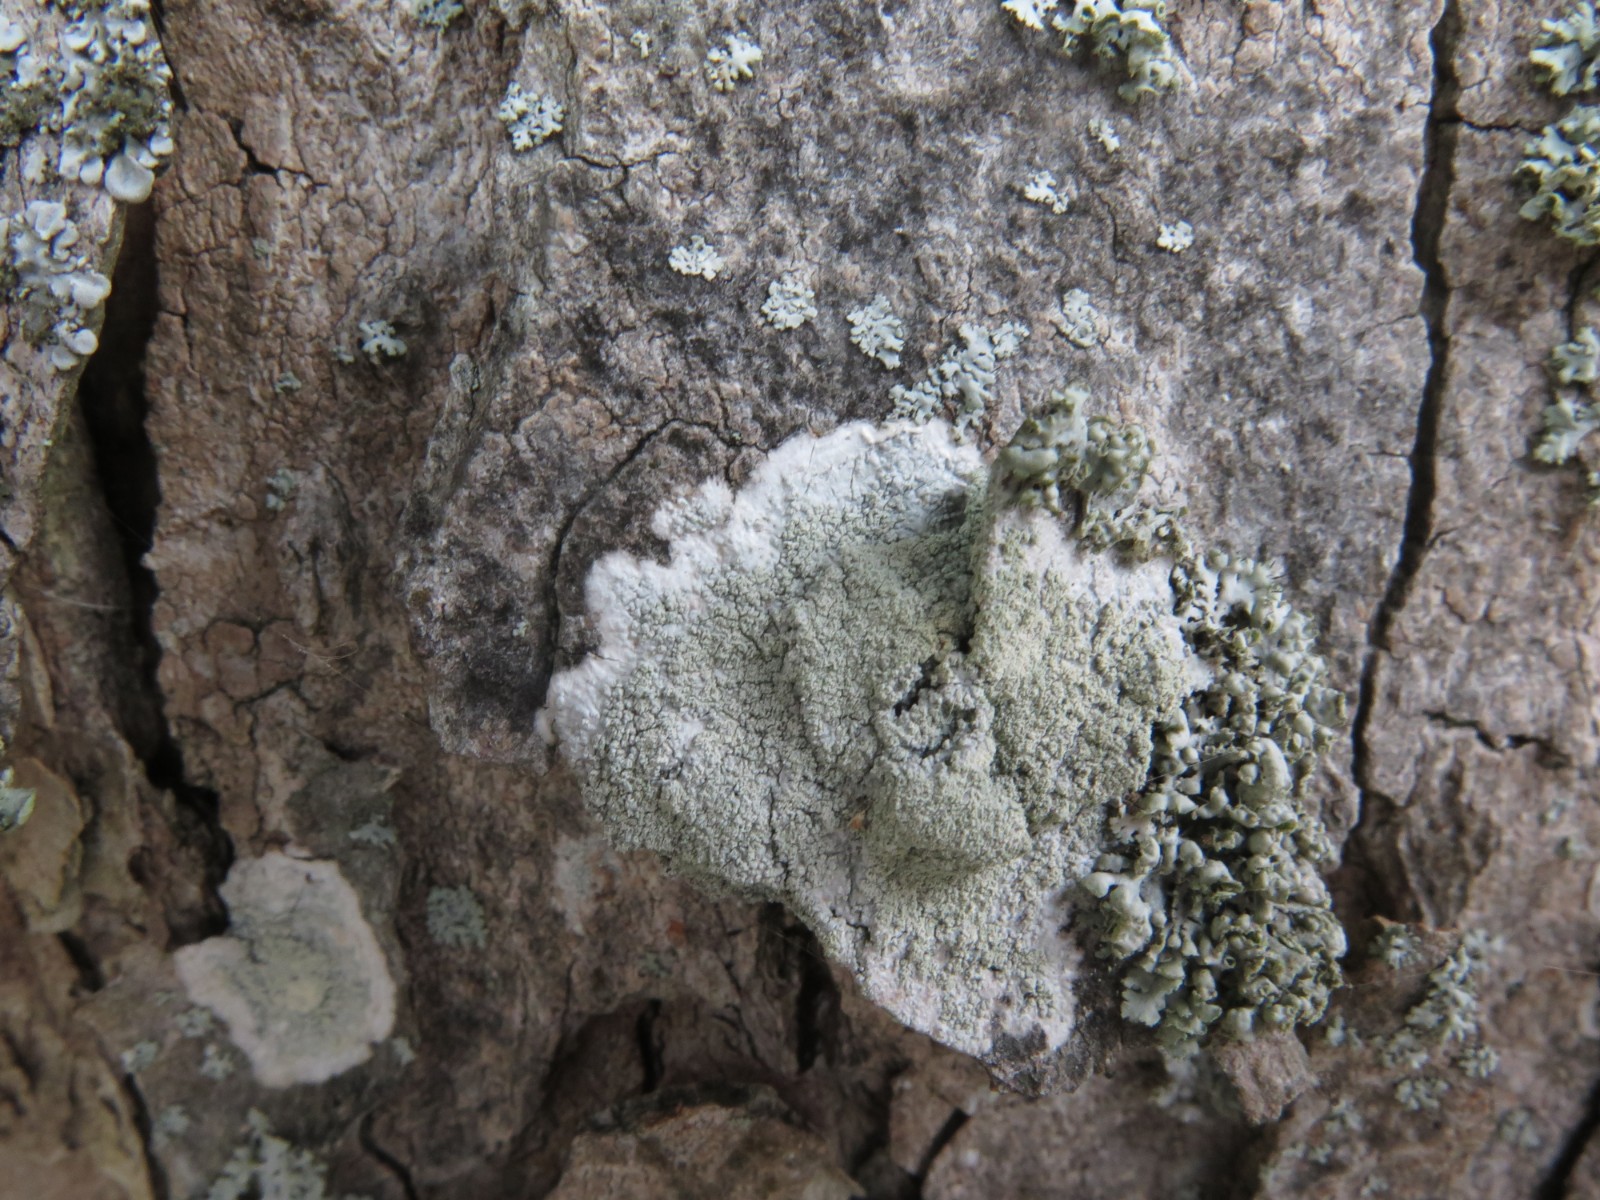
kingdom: Fungi
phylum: Ascomycota
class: Lecanoromycetes
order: Lecanorales
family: Haematommataceae
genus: Haematomma
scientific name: Haematomma ochroleucum
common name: gul trådkantlav
